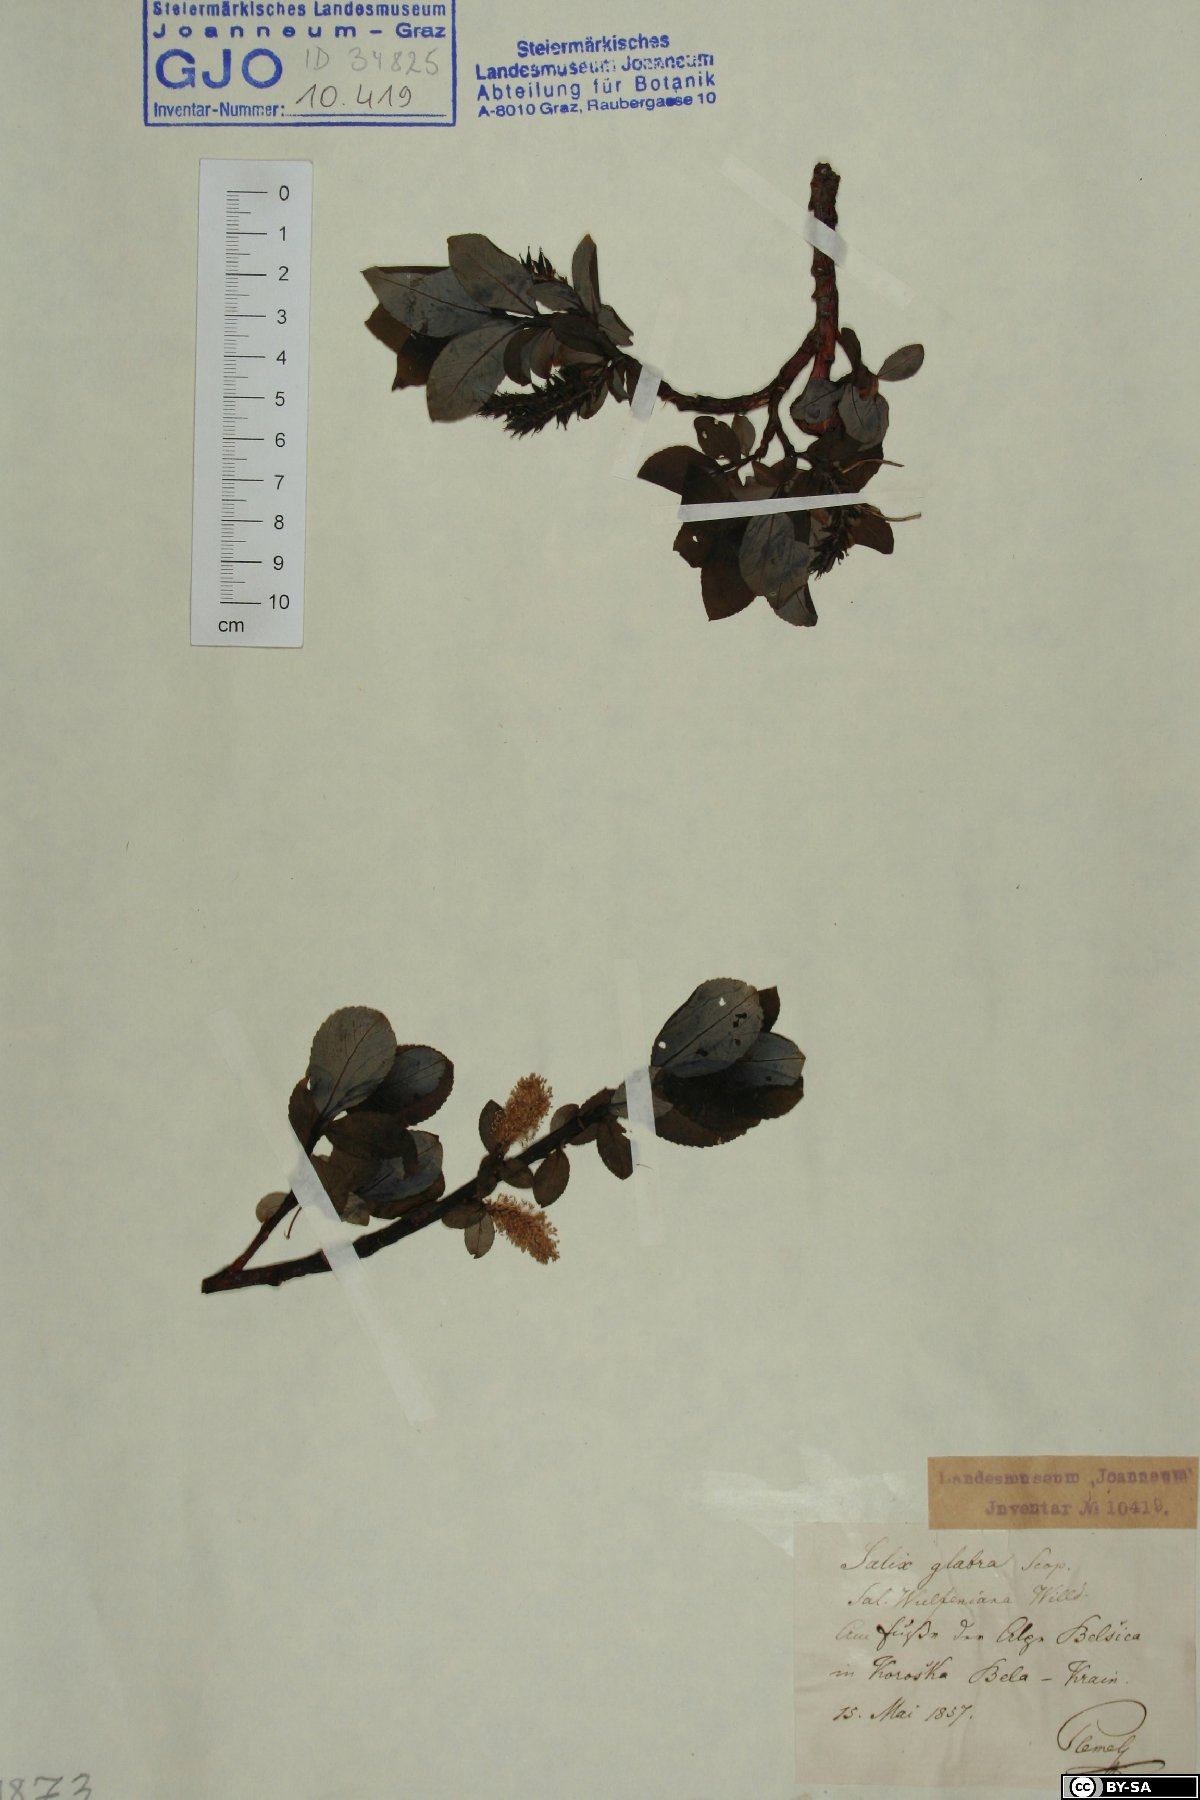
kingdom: Plantae
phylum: Tracheophyta
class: Magnoliopsida
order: Malpighiales
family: Salicaceae
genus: Salix
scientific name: Salix glabra
